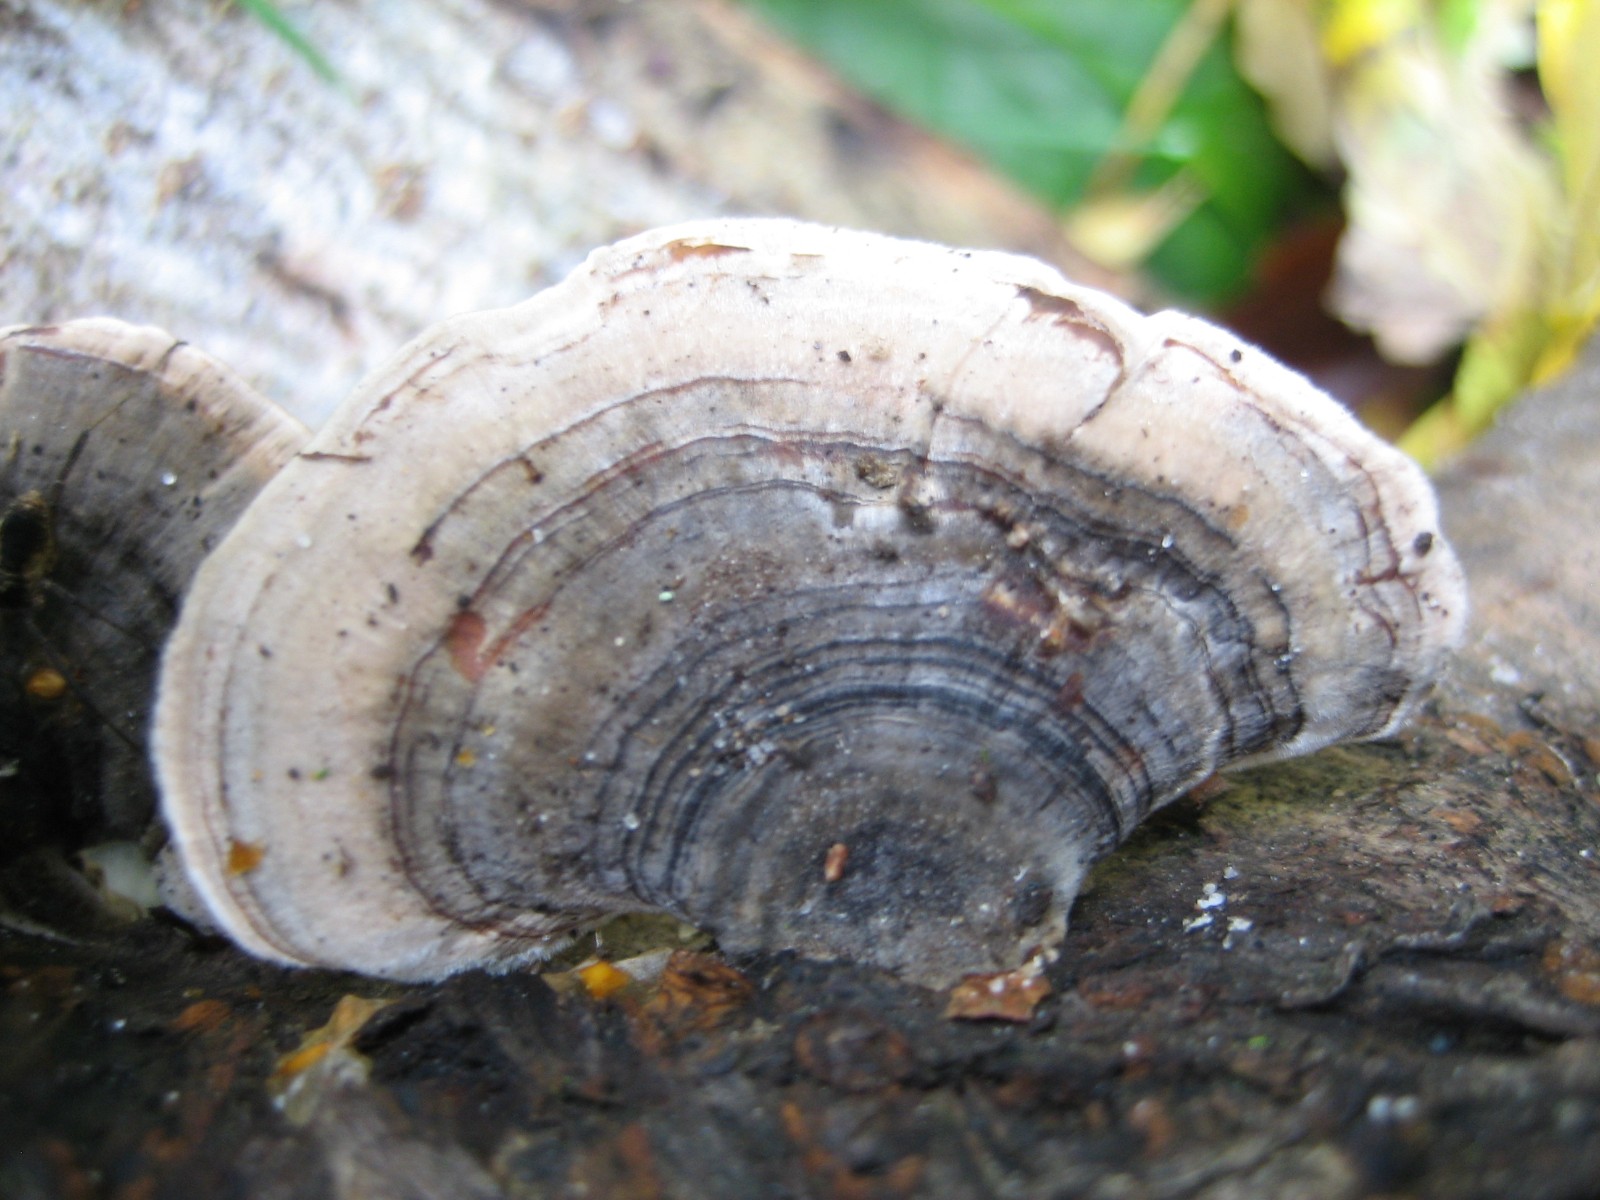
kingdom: Fungi
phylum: Basidiomycota
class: Agaricomycetes
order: Polyporales
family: Polyporaceae
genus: Trametes
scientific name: Trametes versicolor
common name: broget læderporesvamp
